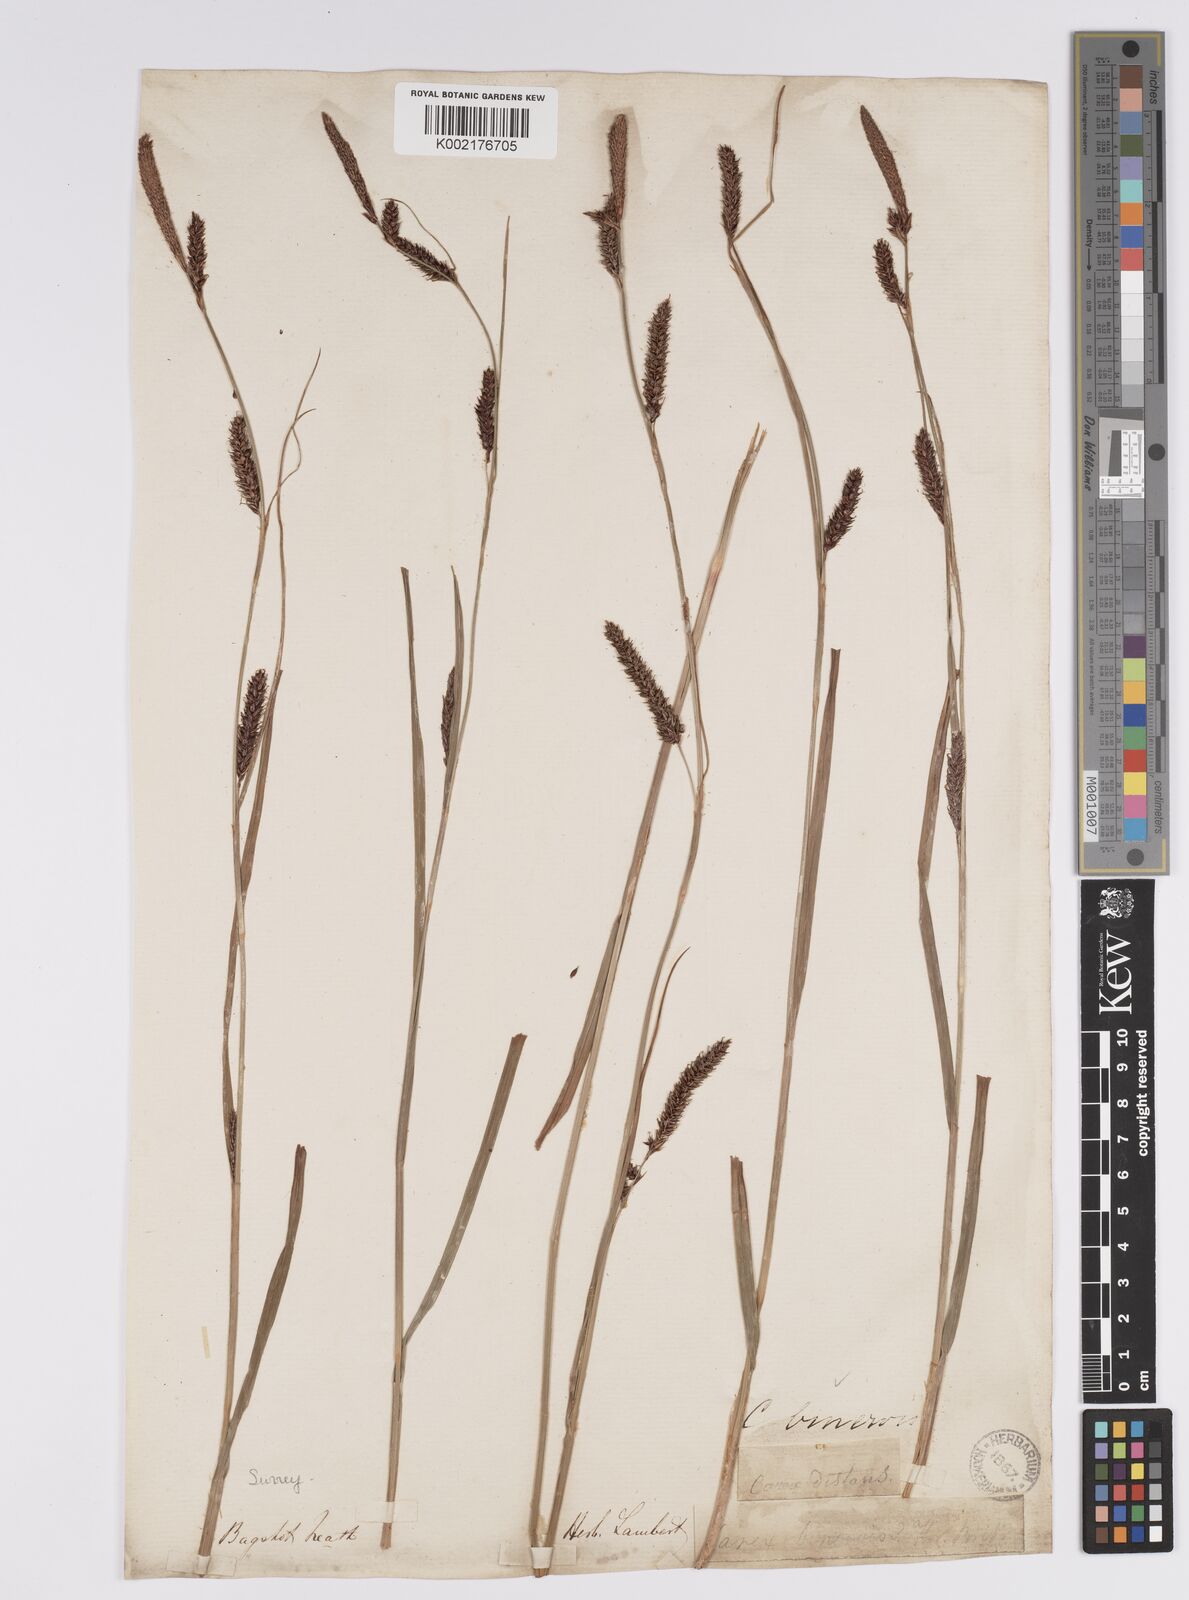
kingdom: Plantae
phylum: Tracheophyta
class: Liliopsida
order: Poales
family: Cyperaceae
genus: Carex
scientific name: Carex binervis
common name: Green-ribbed sedge
